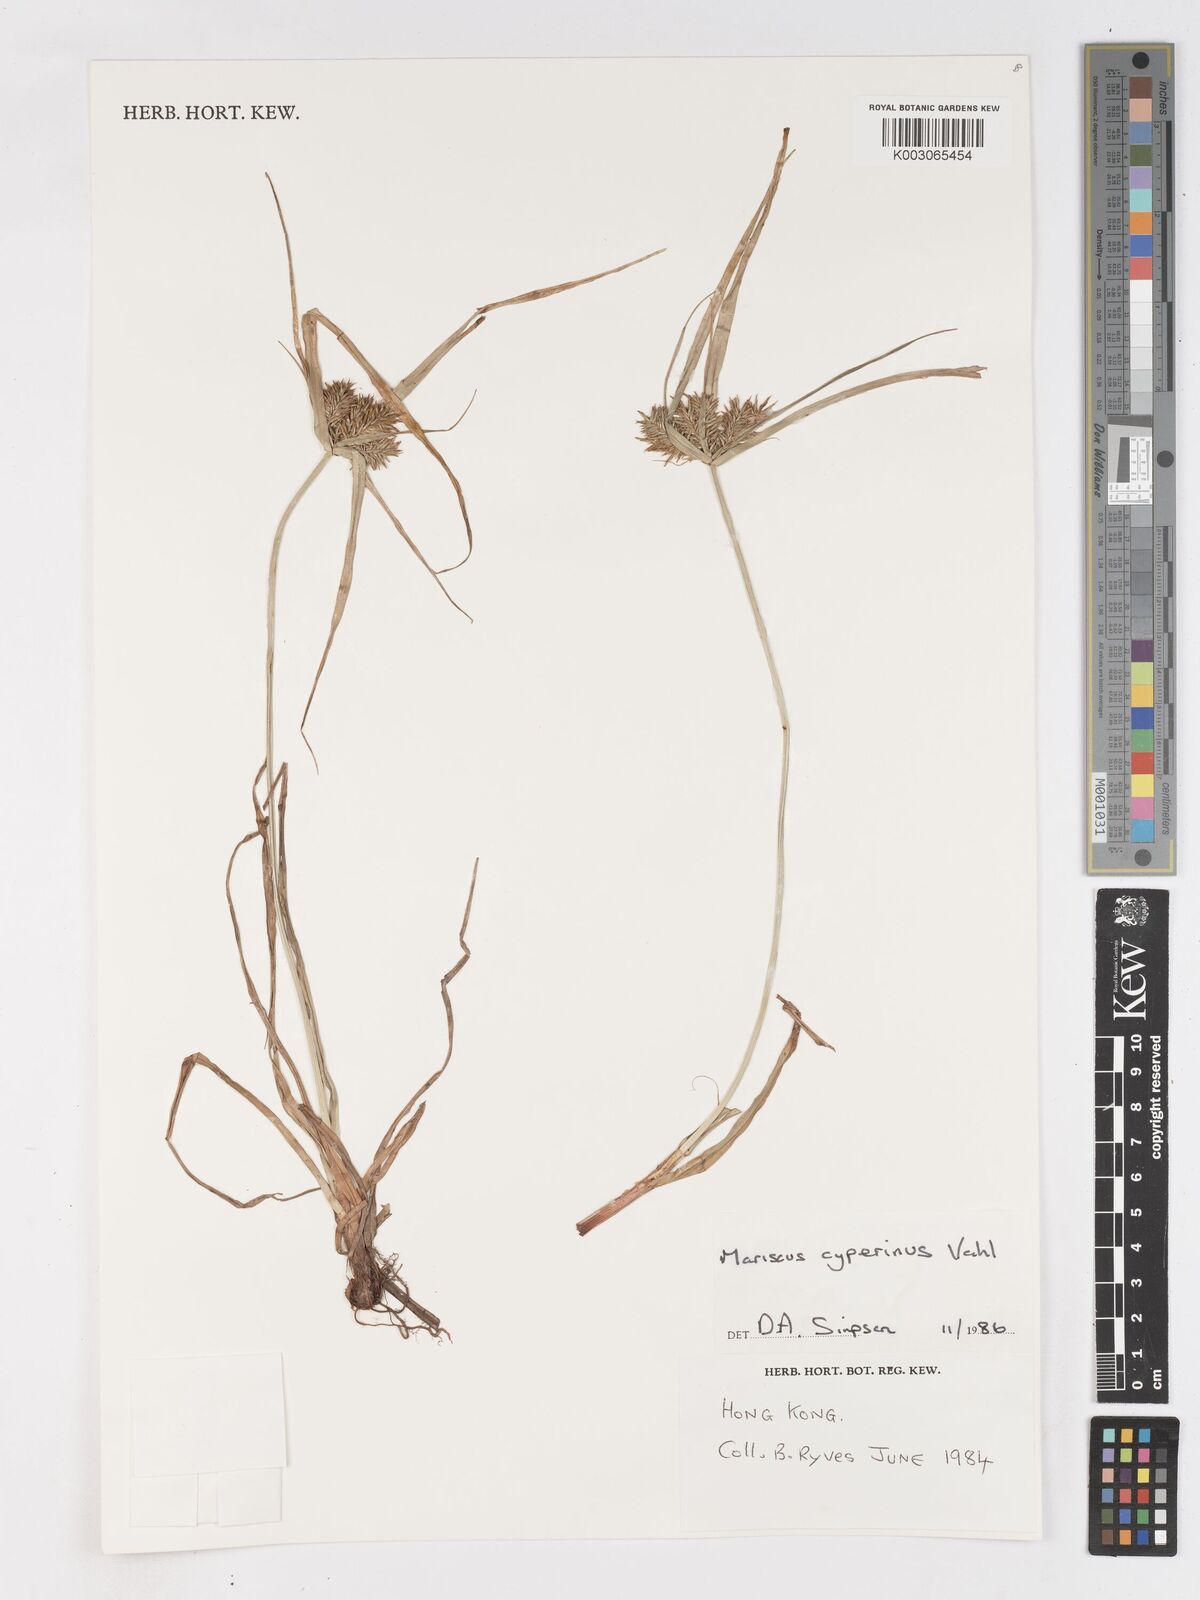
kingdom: Plantae
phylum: Tracheophyta
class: Liliopsida
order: Poales
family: Cyperaceae
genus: Cyperus
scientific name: Cyperus cyperinus
